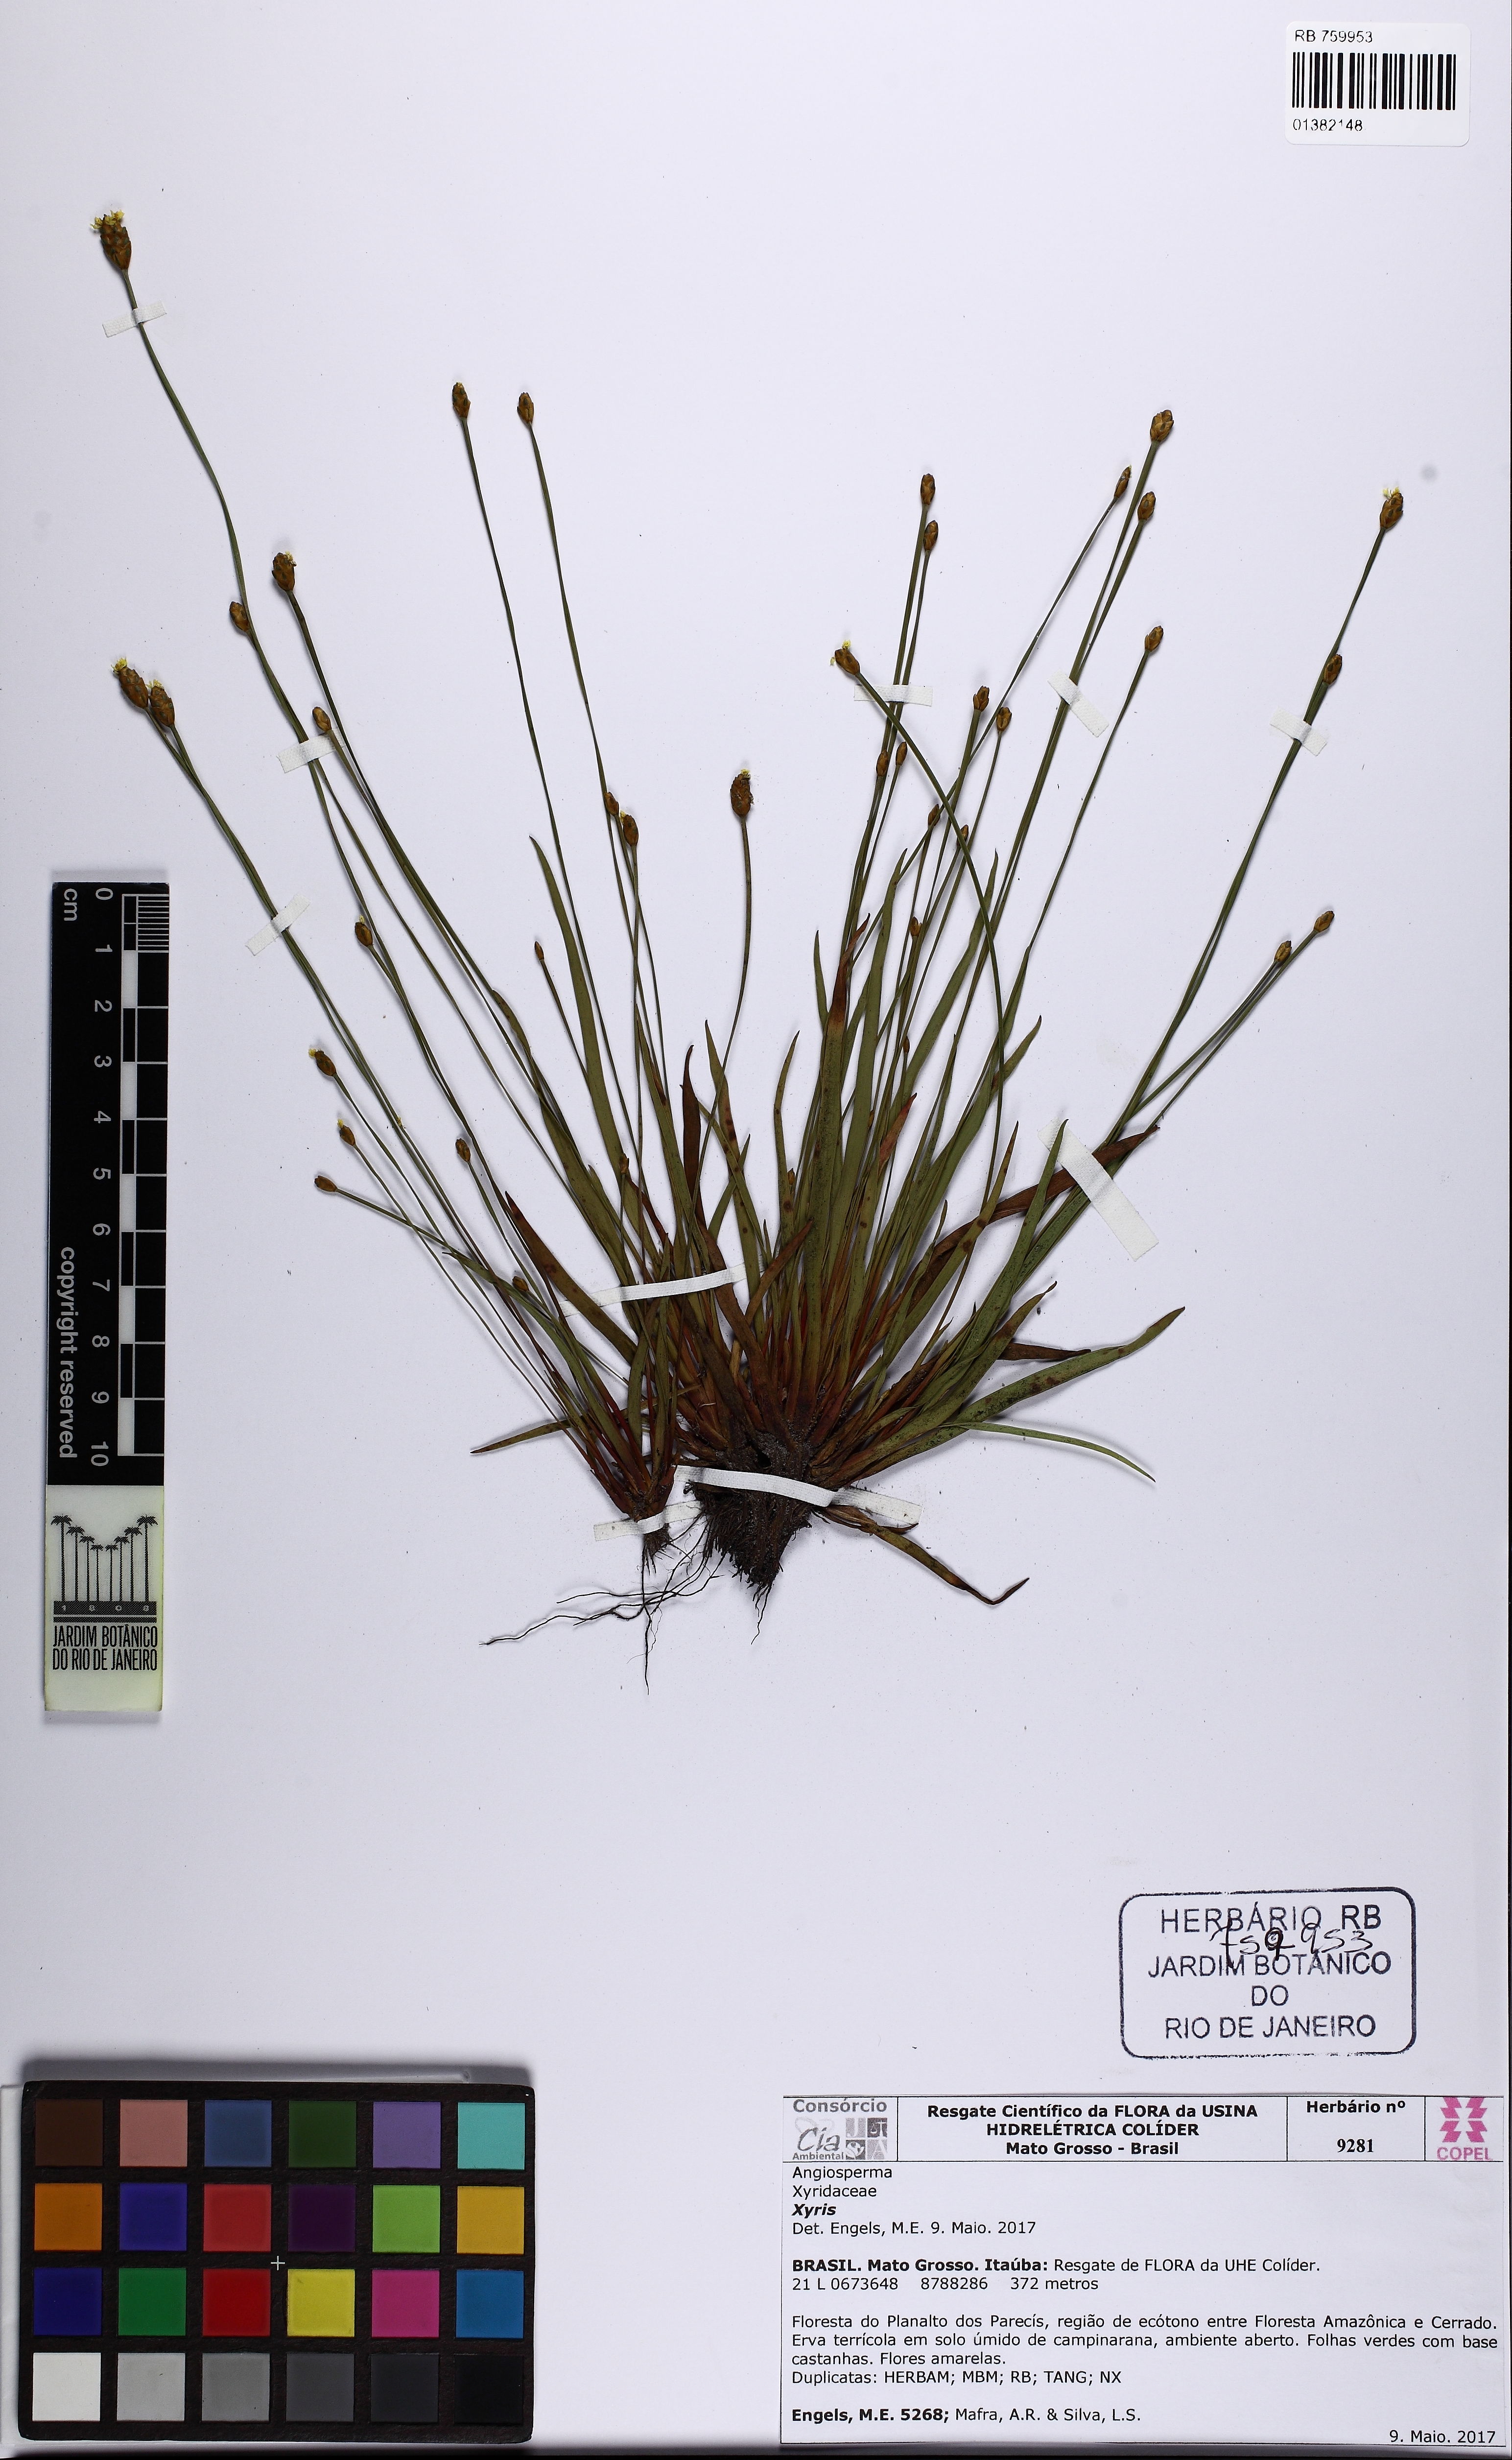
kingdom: Plantae
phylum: Tracheophyta
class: Magnoliopsida
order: Caryophyllales
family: Amaranthaceae
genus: Axyris
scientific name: Axyris
